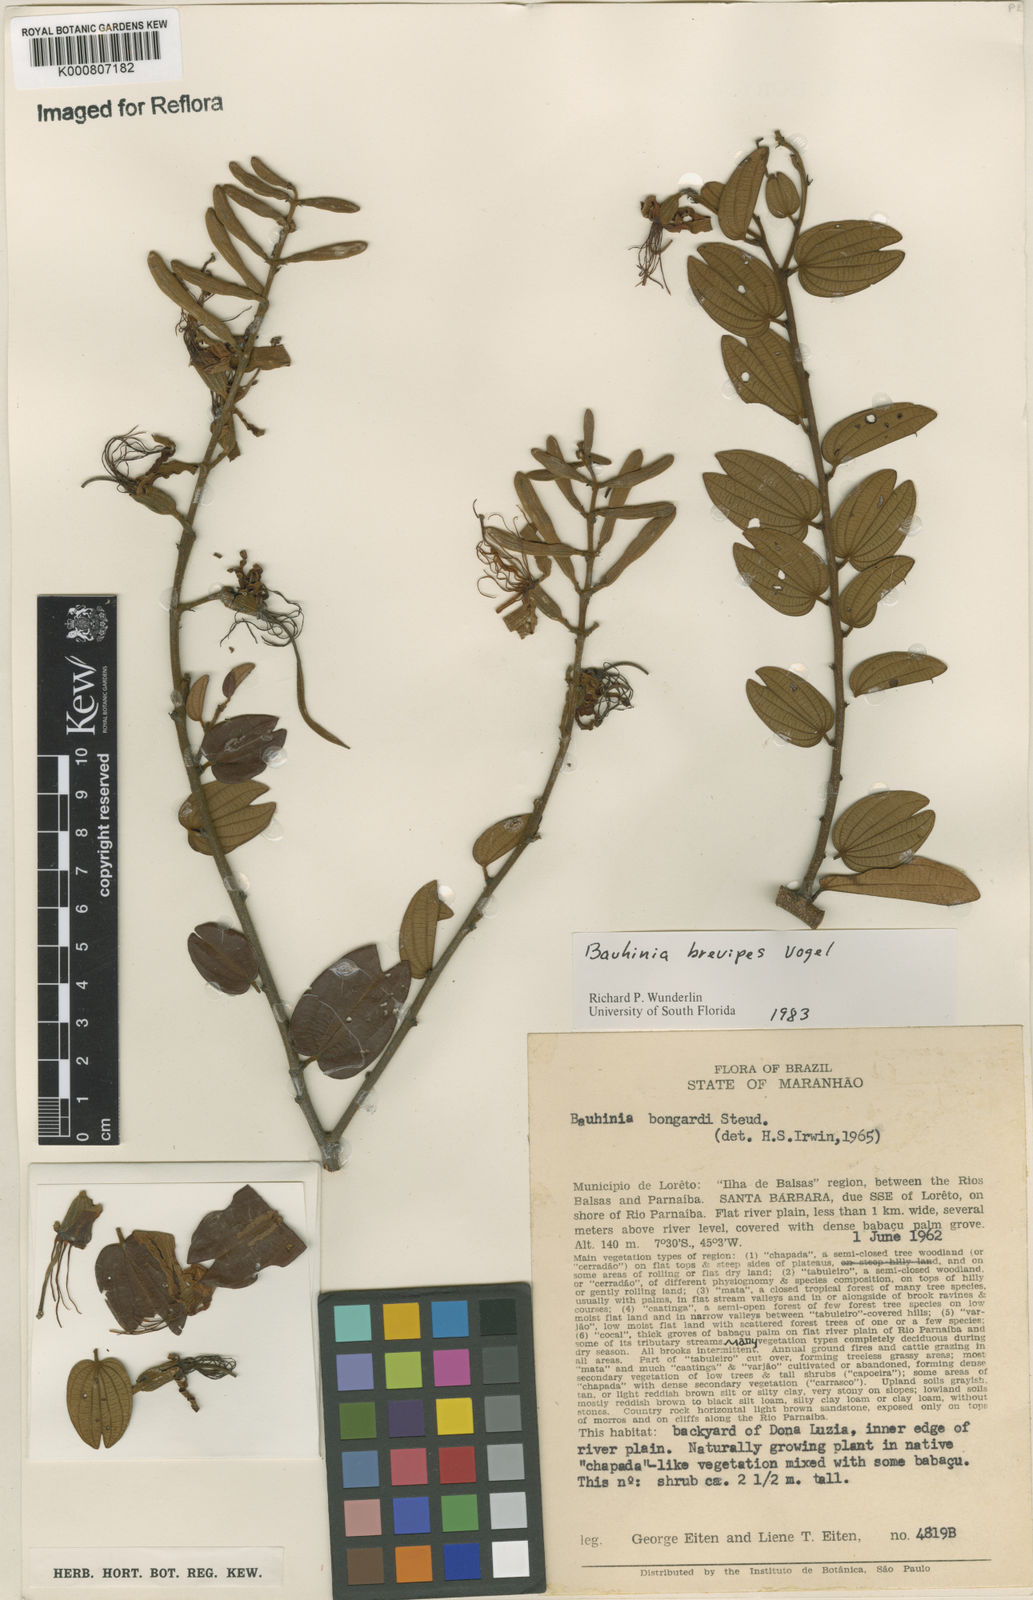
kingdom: Plantae
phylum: Tracheophyta
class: Magnoliopsida
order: Fabales
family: Fabaceae
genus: Bauhinia
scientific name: Bauhinia brevipes
